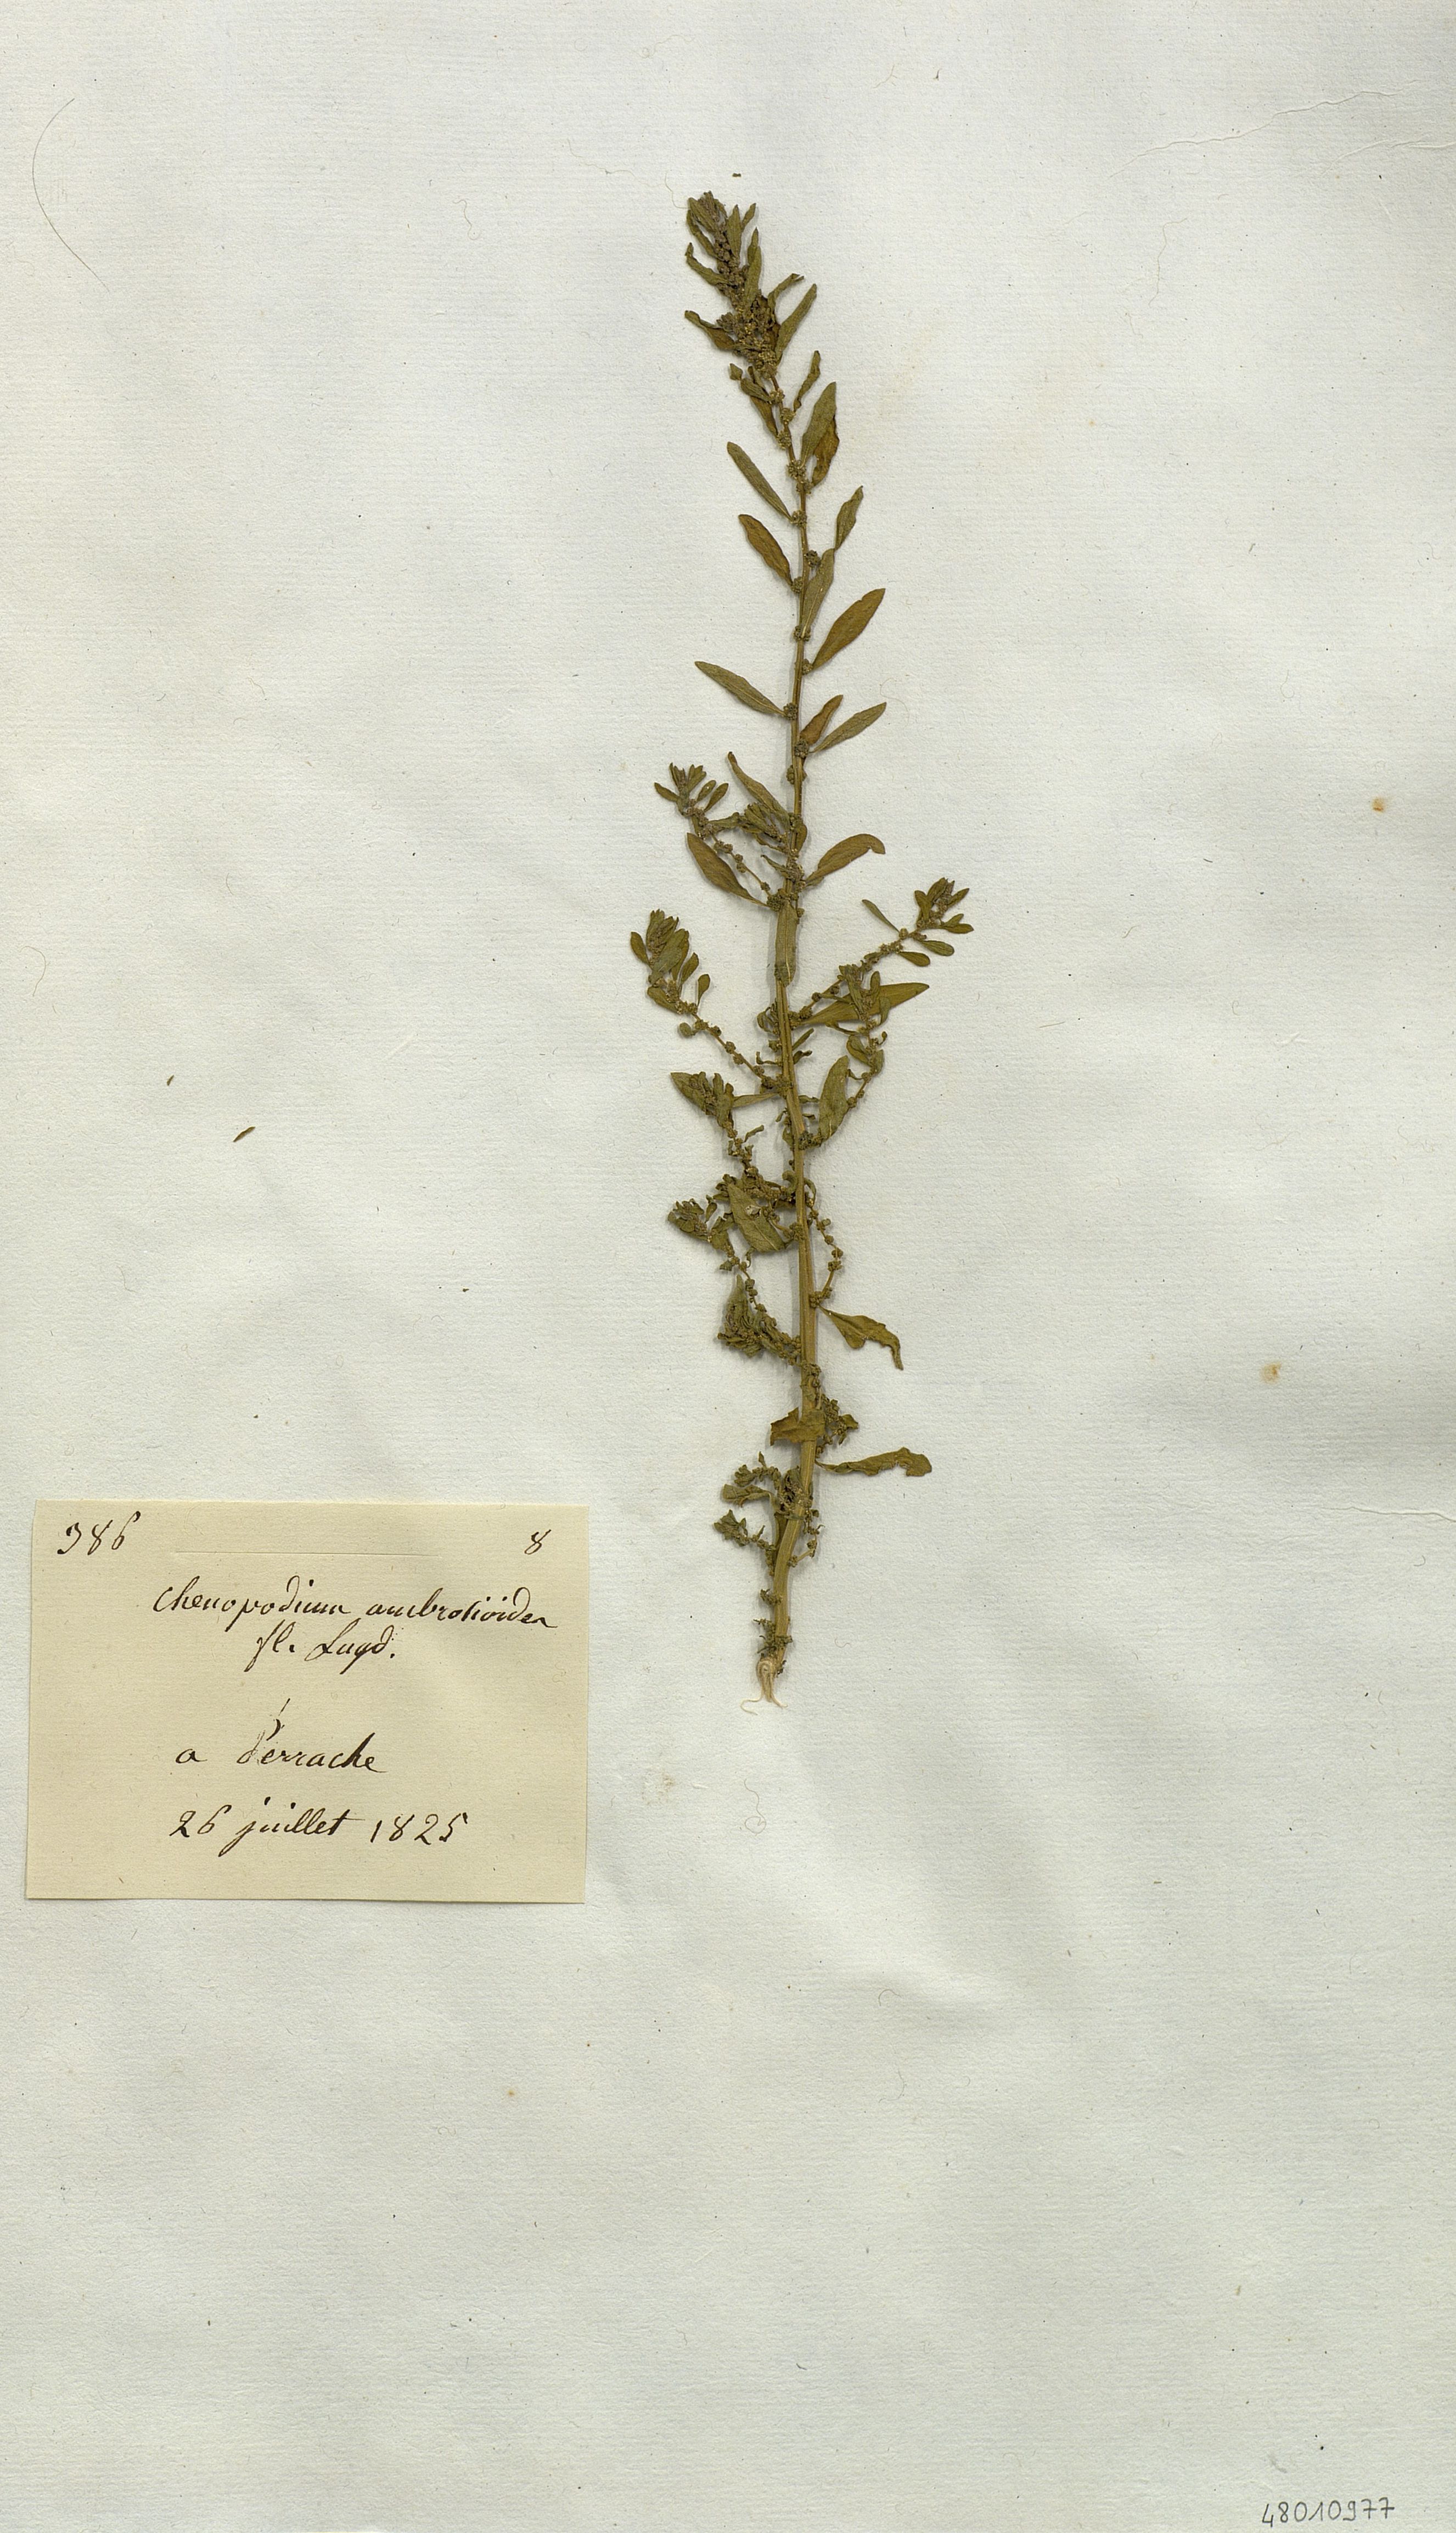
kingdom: Plantae
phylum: Tracheophyta
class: Magnoliopsida
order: Caryophyllales
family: Amaranthaceae
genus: Chenopodium
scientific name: Chenopodium
